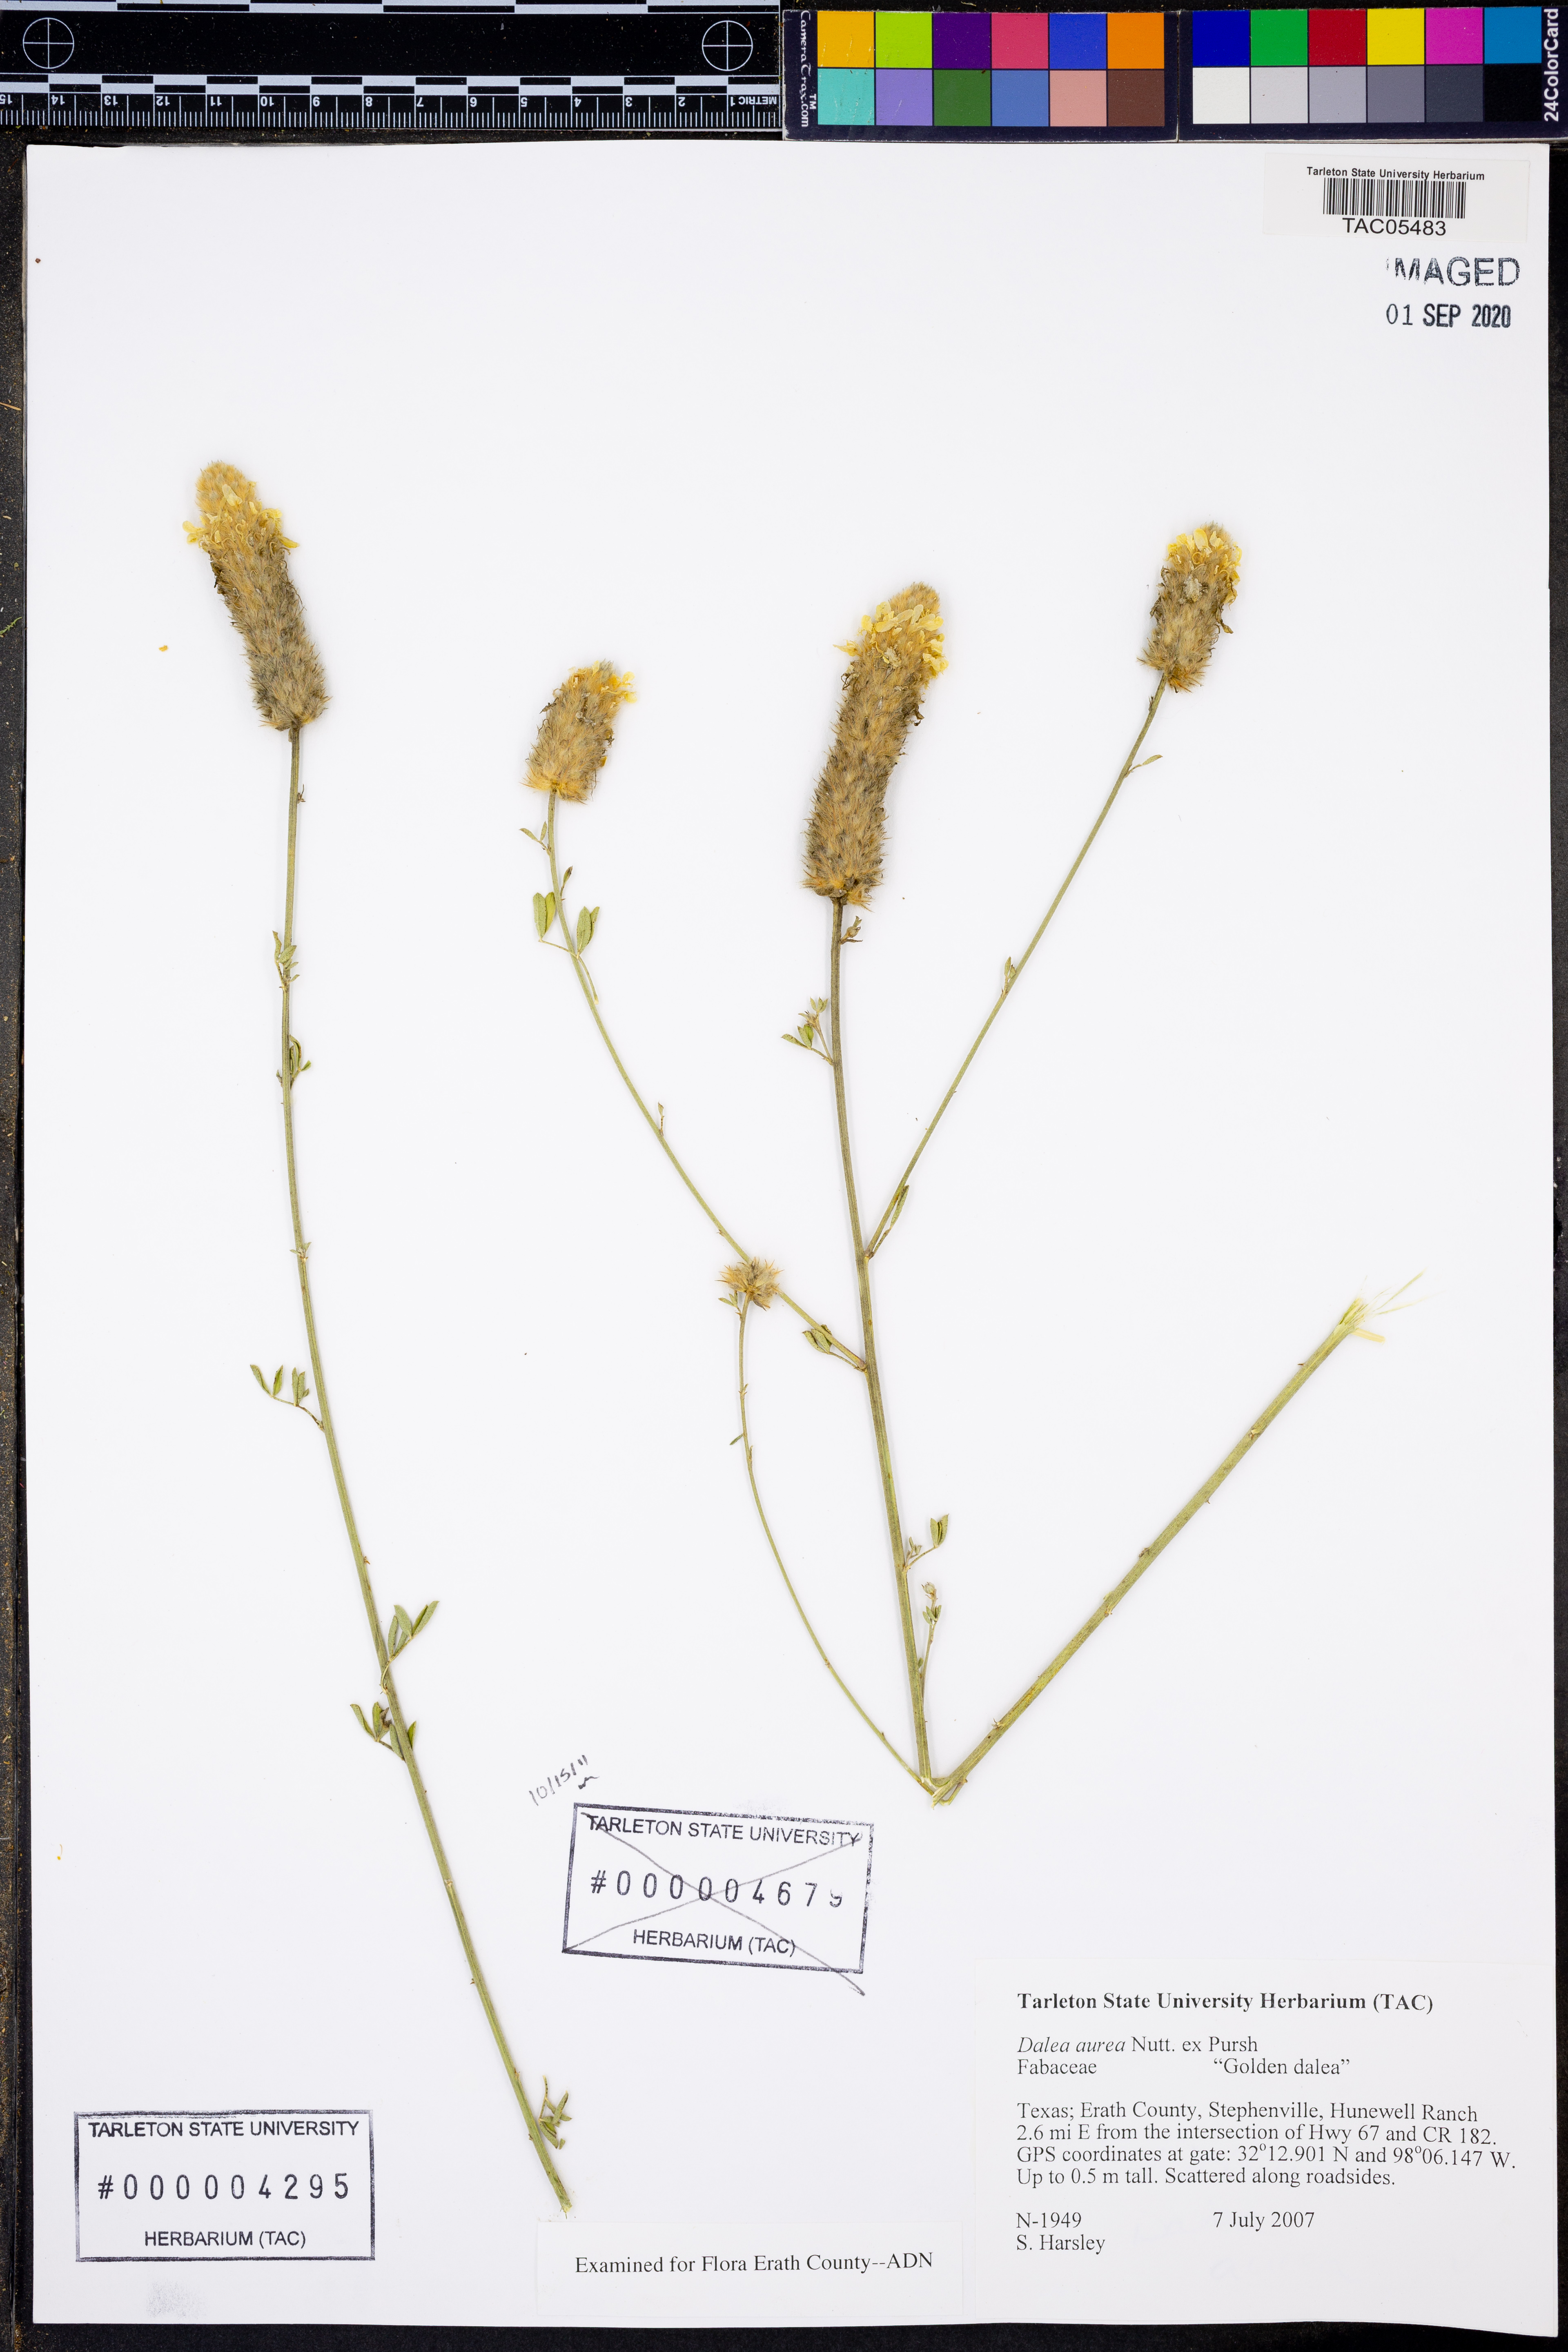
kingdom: Plantae
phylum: Tracheophyta
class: Magnoliopsida
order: Fabales
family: Fabaceae
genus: Dalea
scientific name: Dalea aurea
